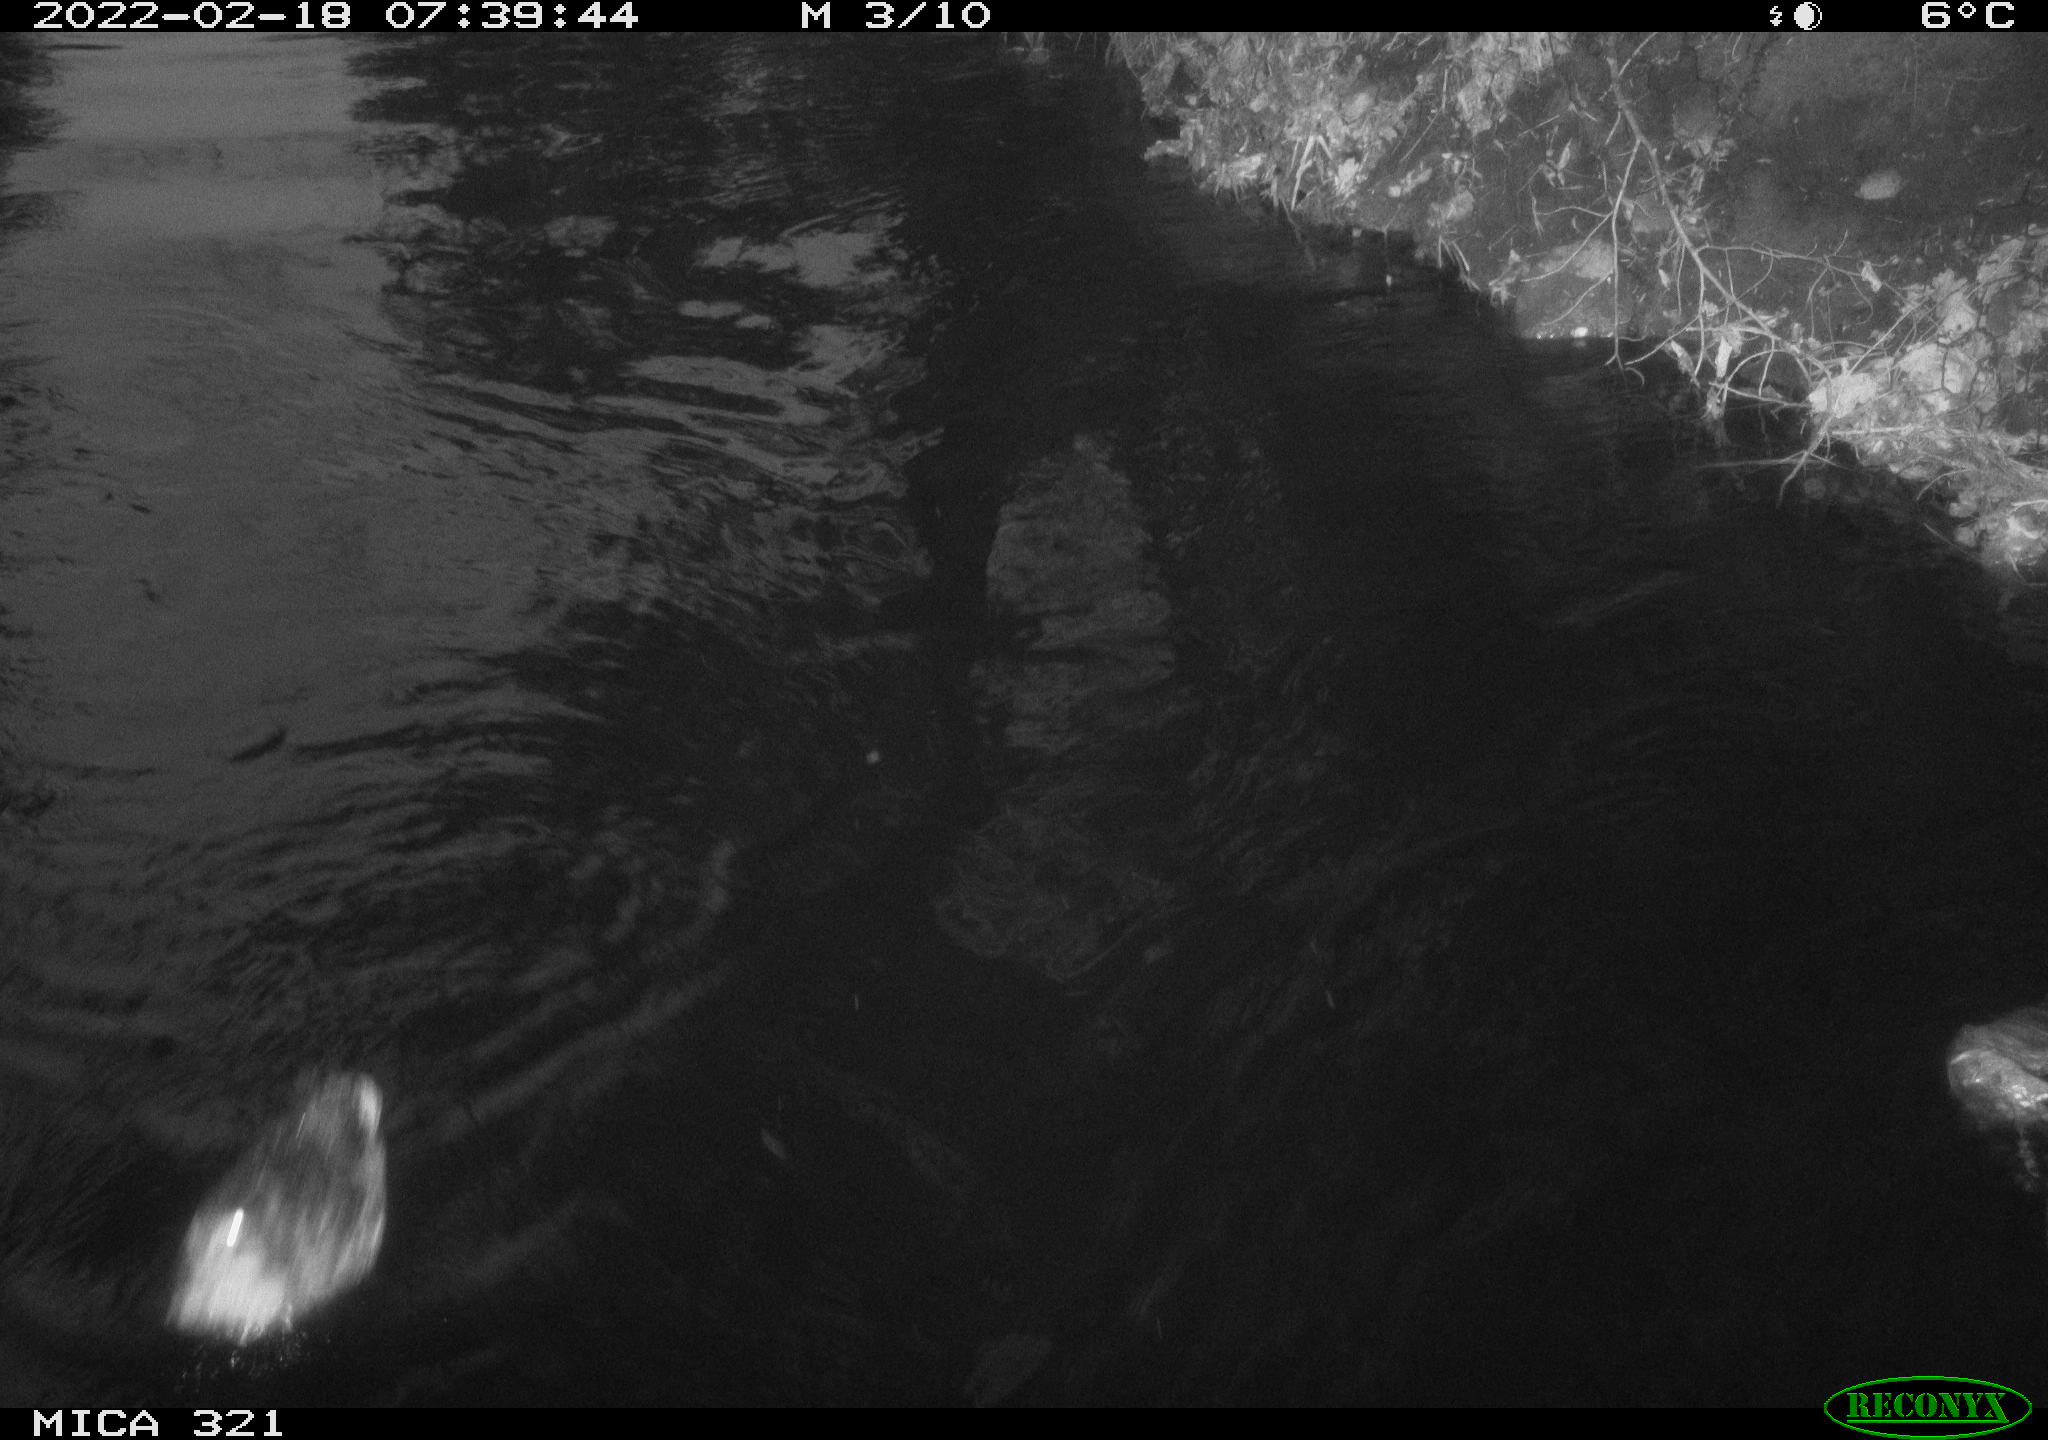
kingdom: Animalia
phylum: Chordata
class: Aves
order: Anseriformes
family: Anatidae
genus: Anas
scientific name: Anas platyrhynchos
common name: Mallard
